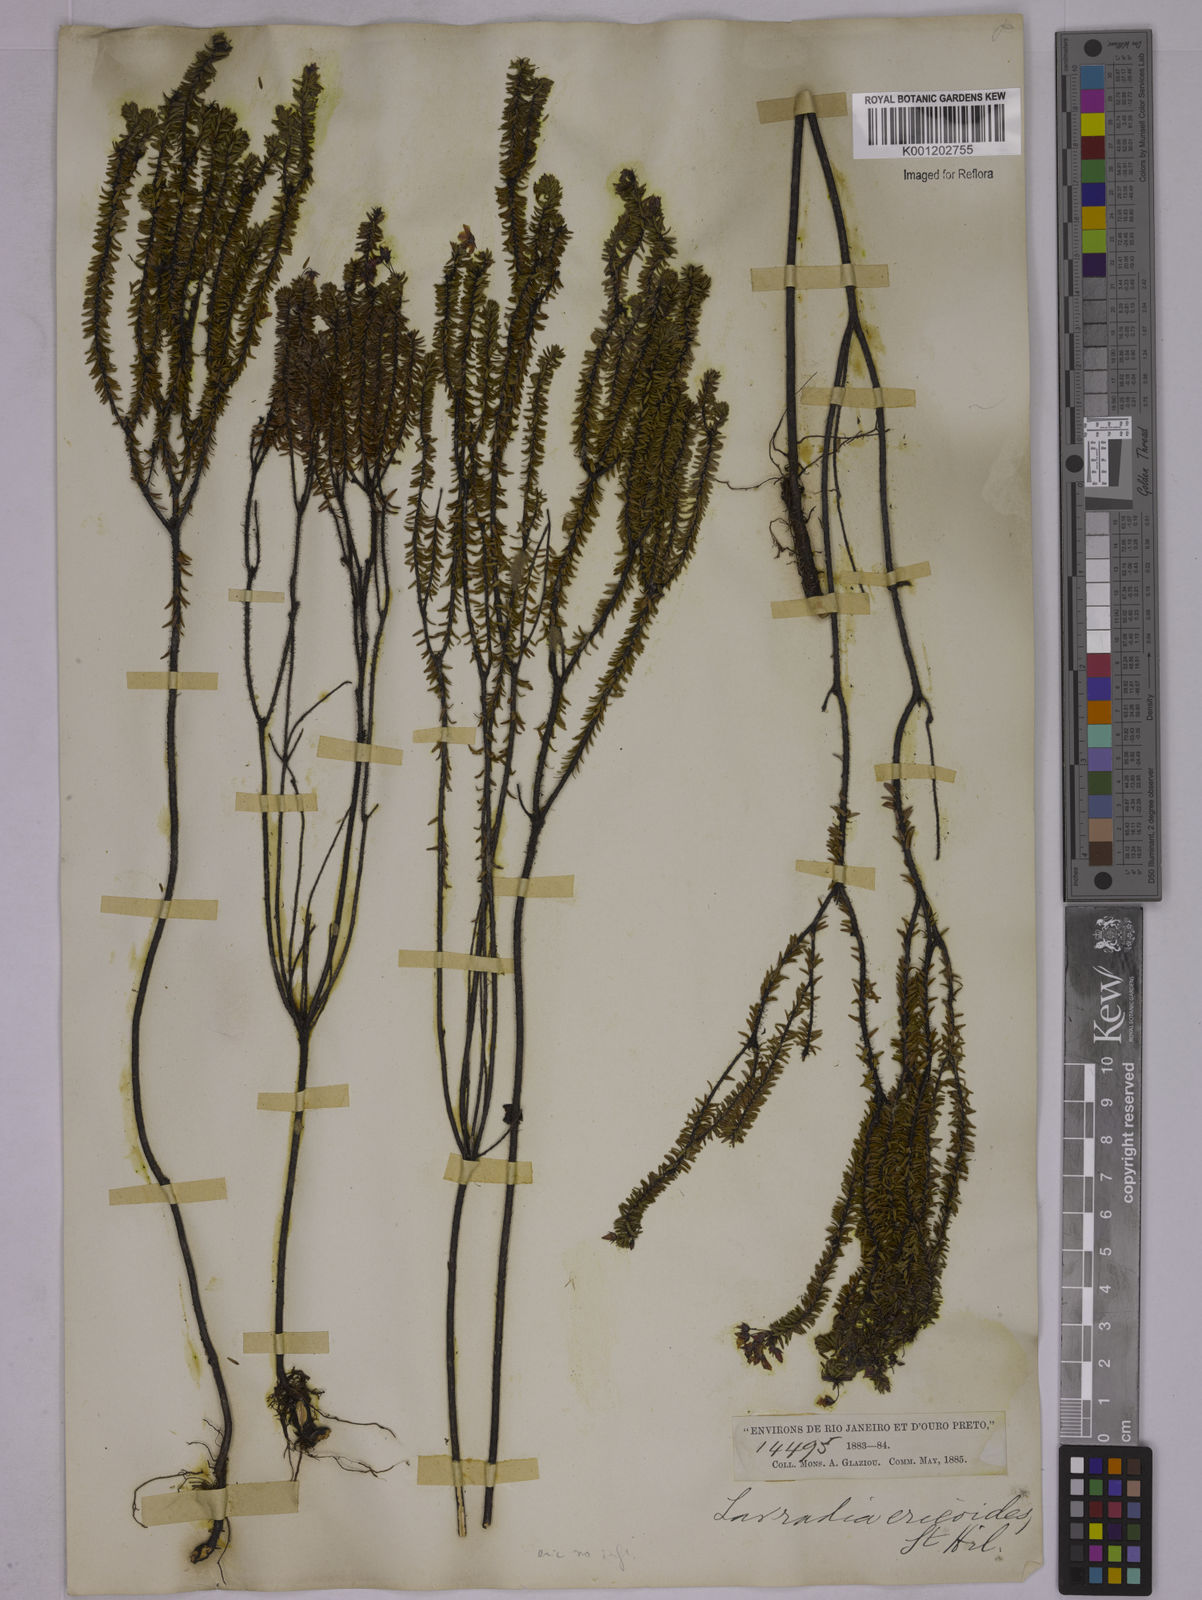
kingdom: Plantae
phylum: Tracheophyta
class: Magnoliopsida
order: Malpighiales
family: Ochnaceae
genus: Sauvagesia
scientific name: Sauvagesia ericoides
